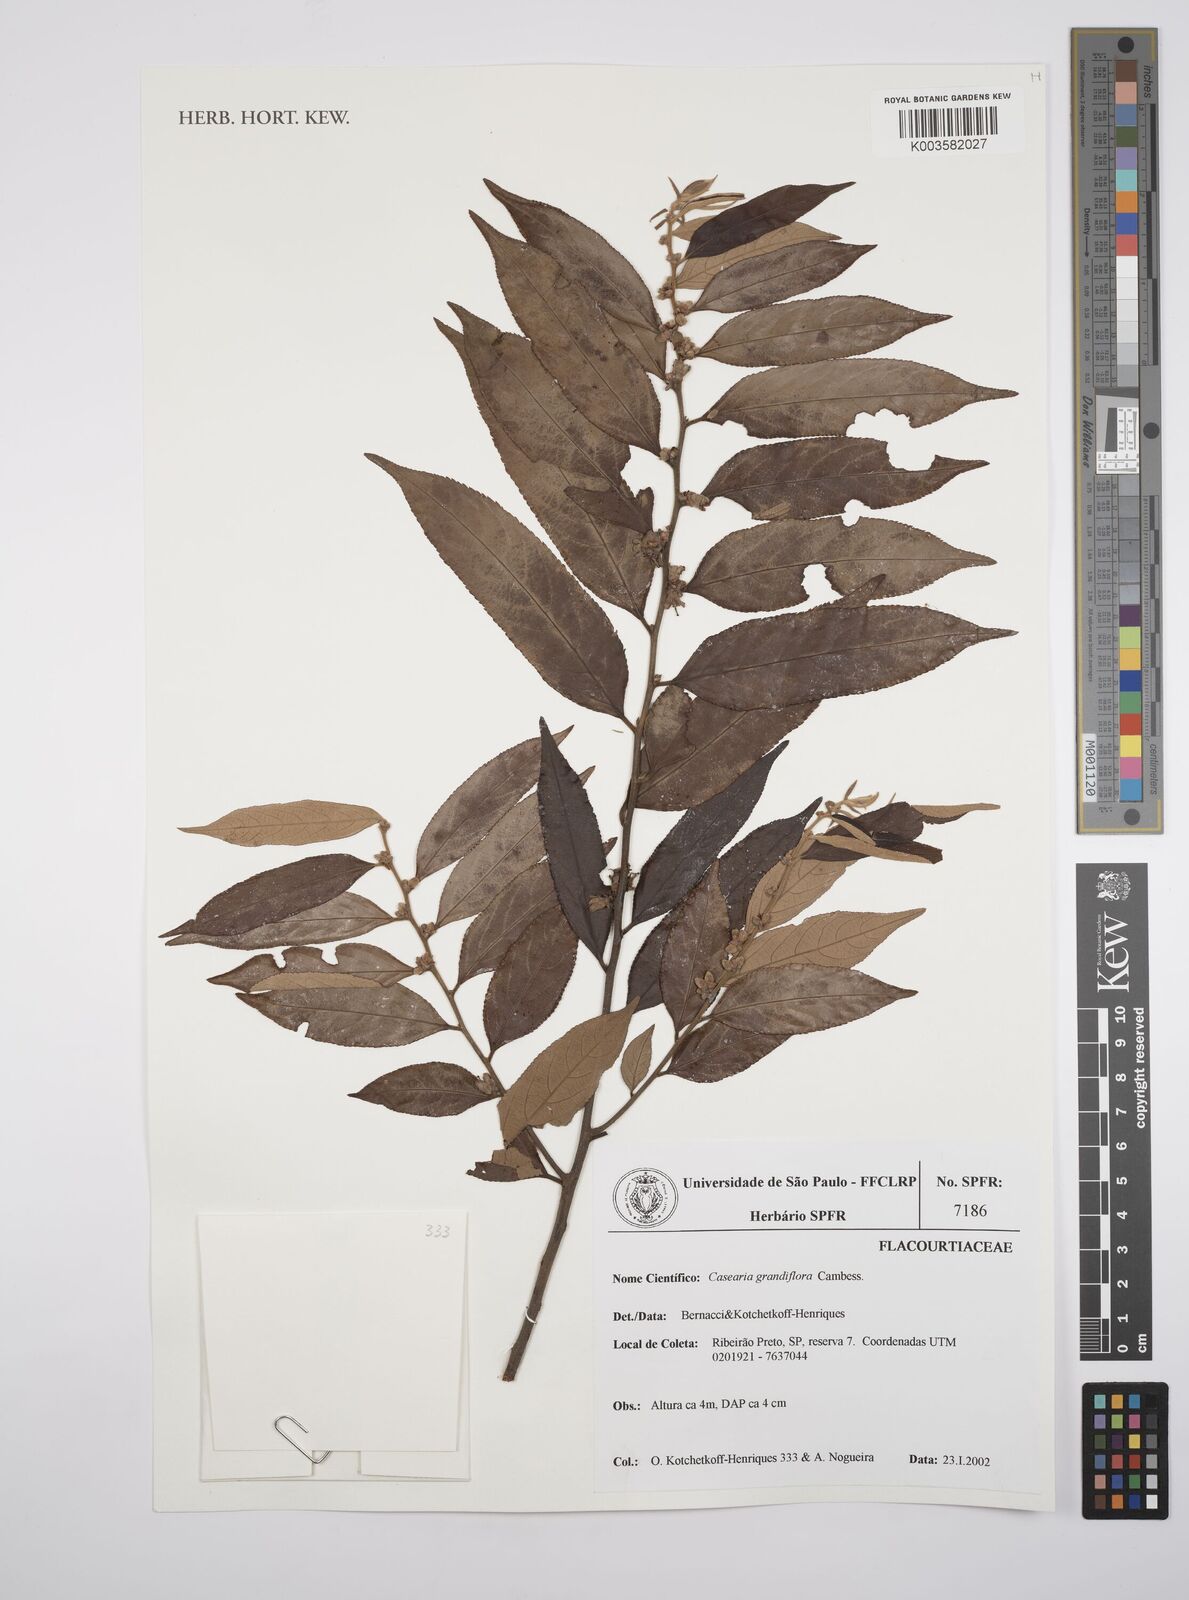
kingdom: Plantae
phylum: Tracheophyta
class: Magnoliopsida
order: Malpighiales
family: Salicaceae
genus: Casearia
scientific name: Casearia grandiflora
